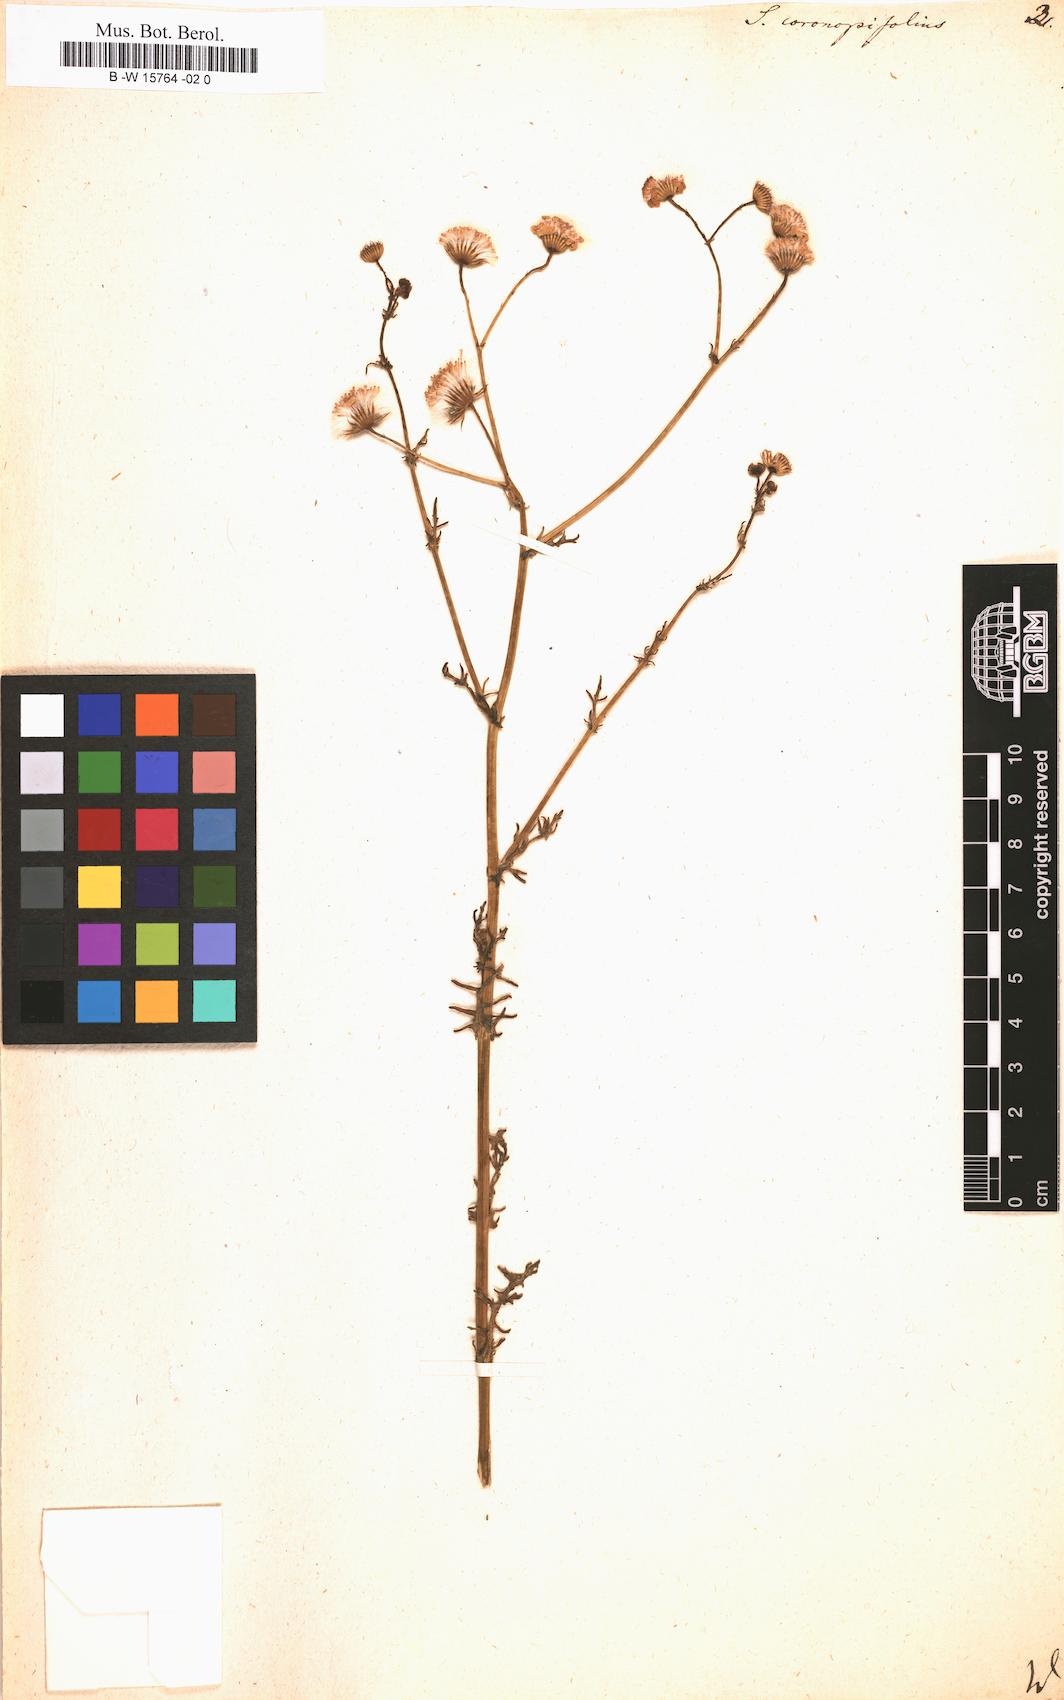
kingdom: Plantae
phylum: Tracheophyta
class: Magnoliopsida
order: Asterales
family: Asteraceae
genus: Senecio
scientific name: Senecio coronopifolius
